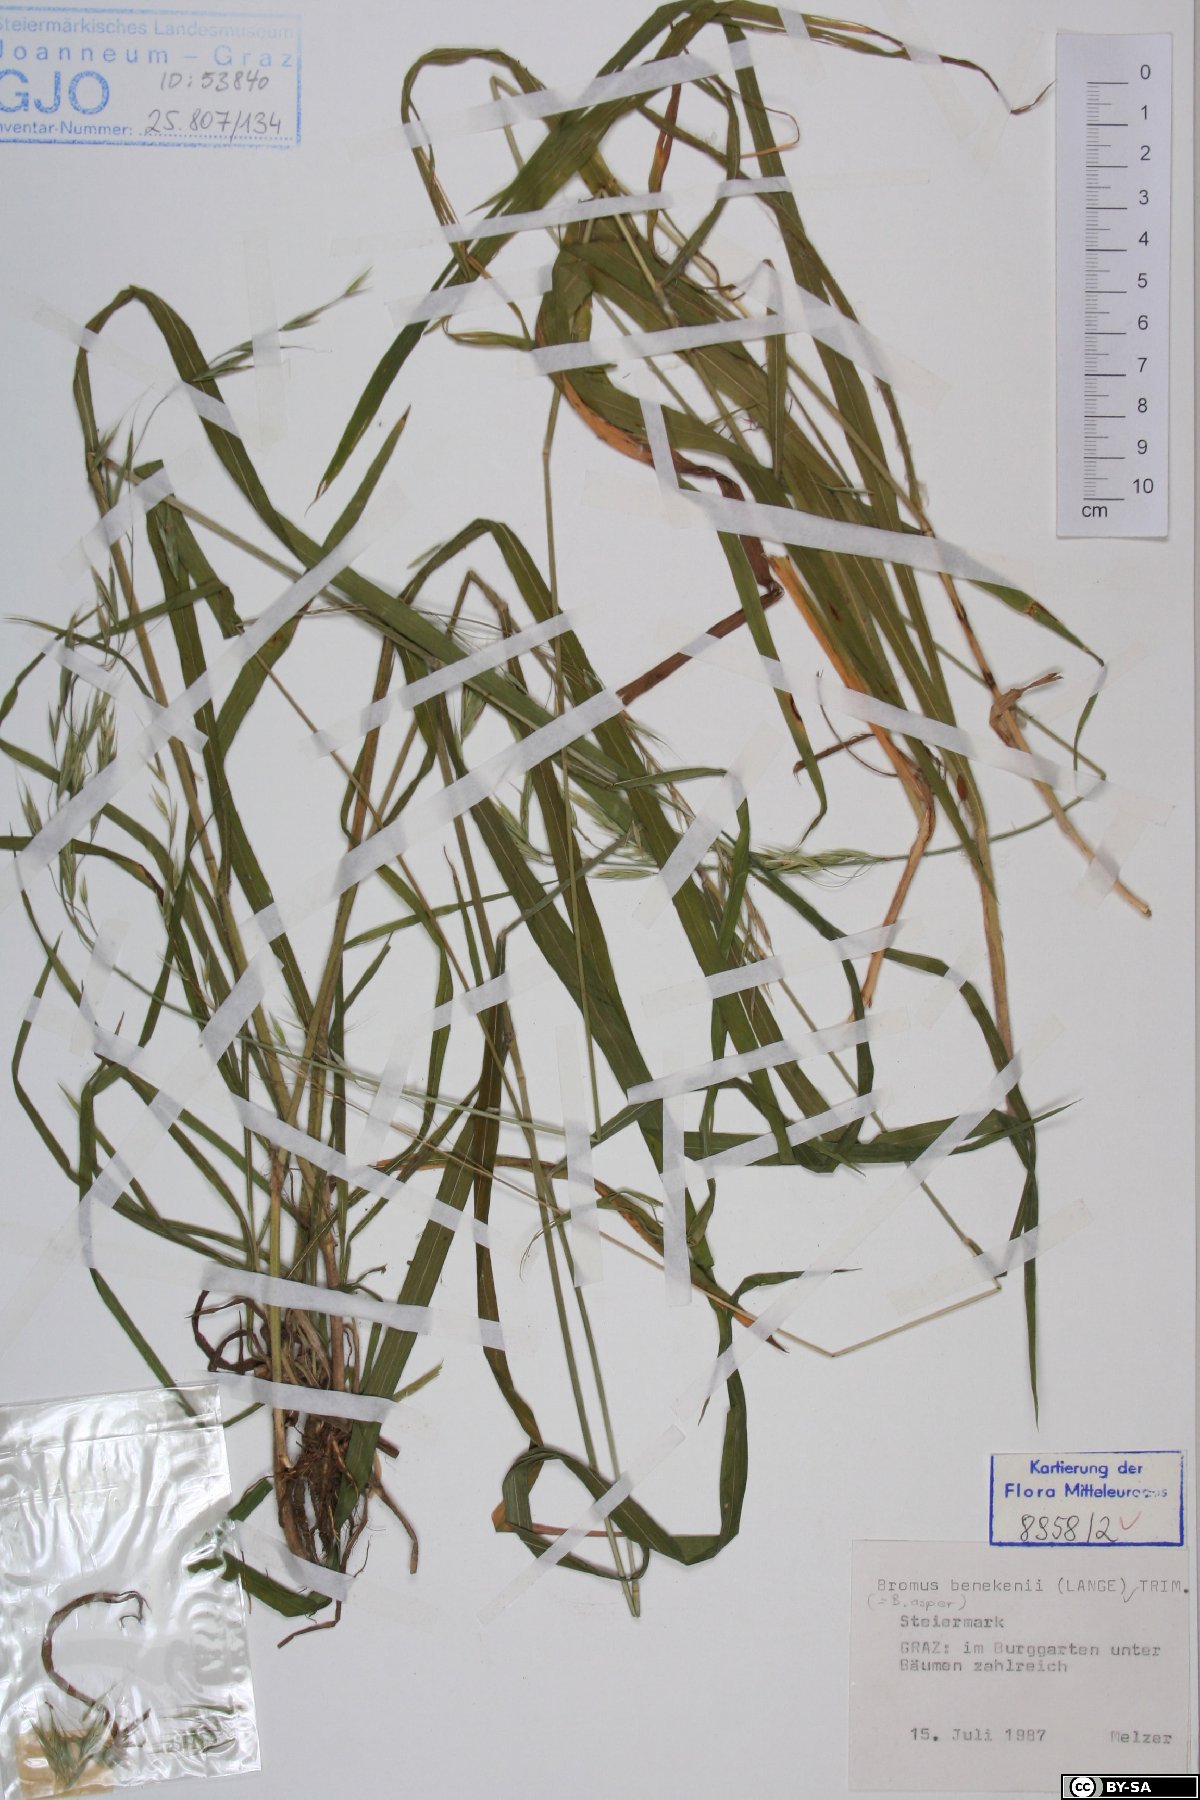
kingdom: Plantae
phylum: Tracheophyta
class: Liliopsida
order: Poales
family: Poaceae
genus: Bromus
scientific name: Bromus benekenii
